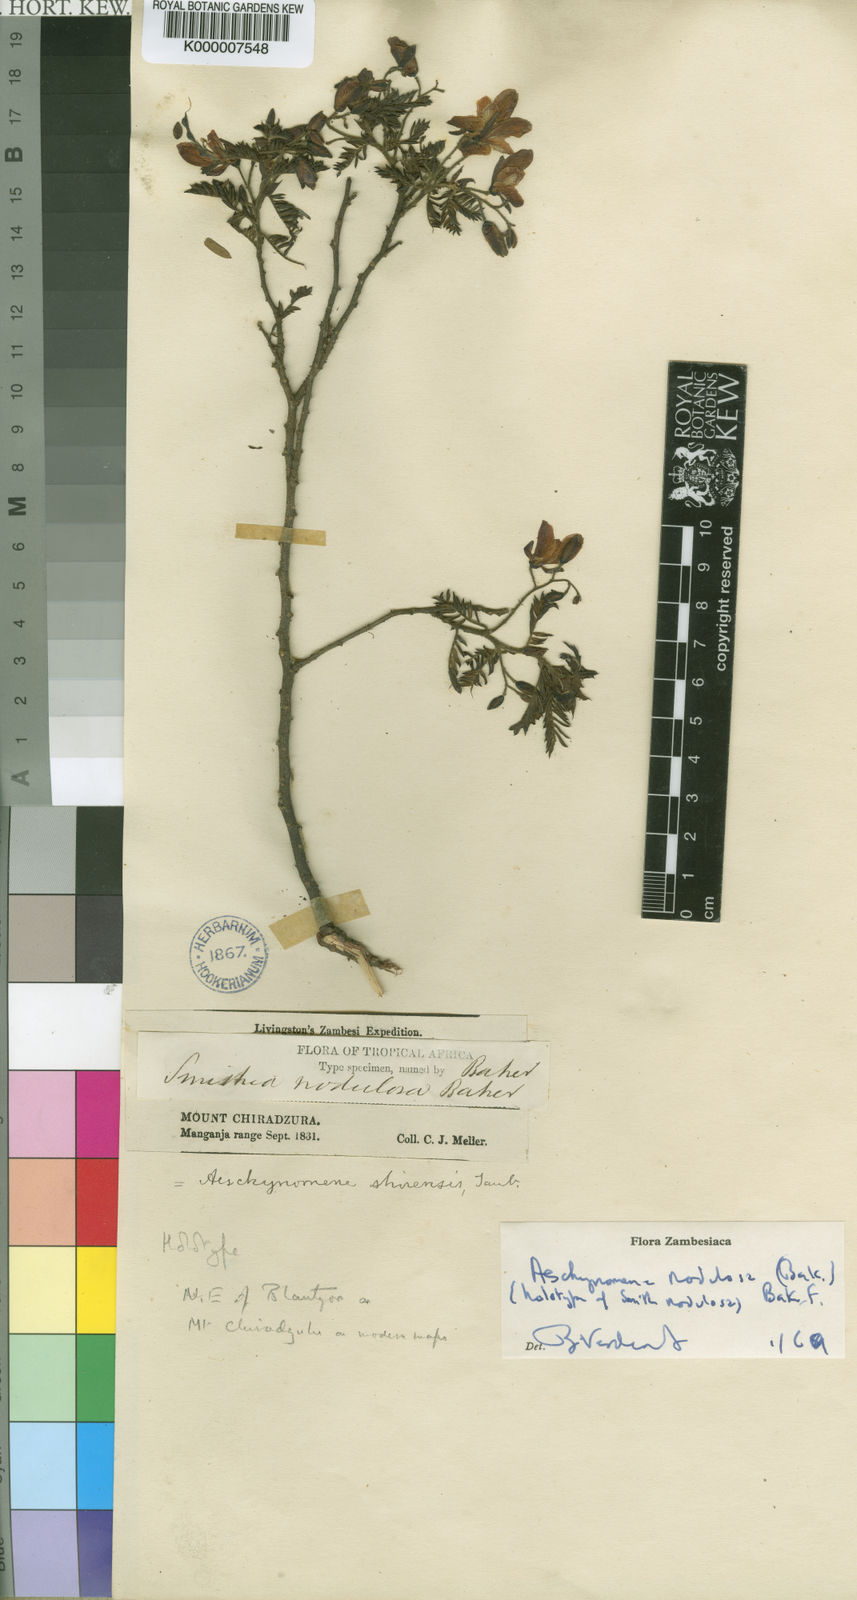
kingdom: Plantae
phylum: Tracheophyta
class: Magnoliopsida
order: Fabales
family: Fabaceae
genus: Aeschynomene
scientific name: Aeschynomene nodulosa
